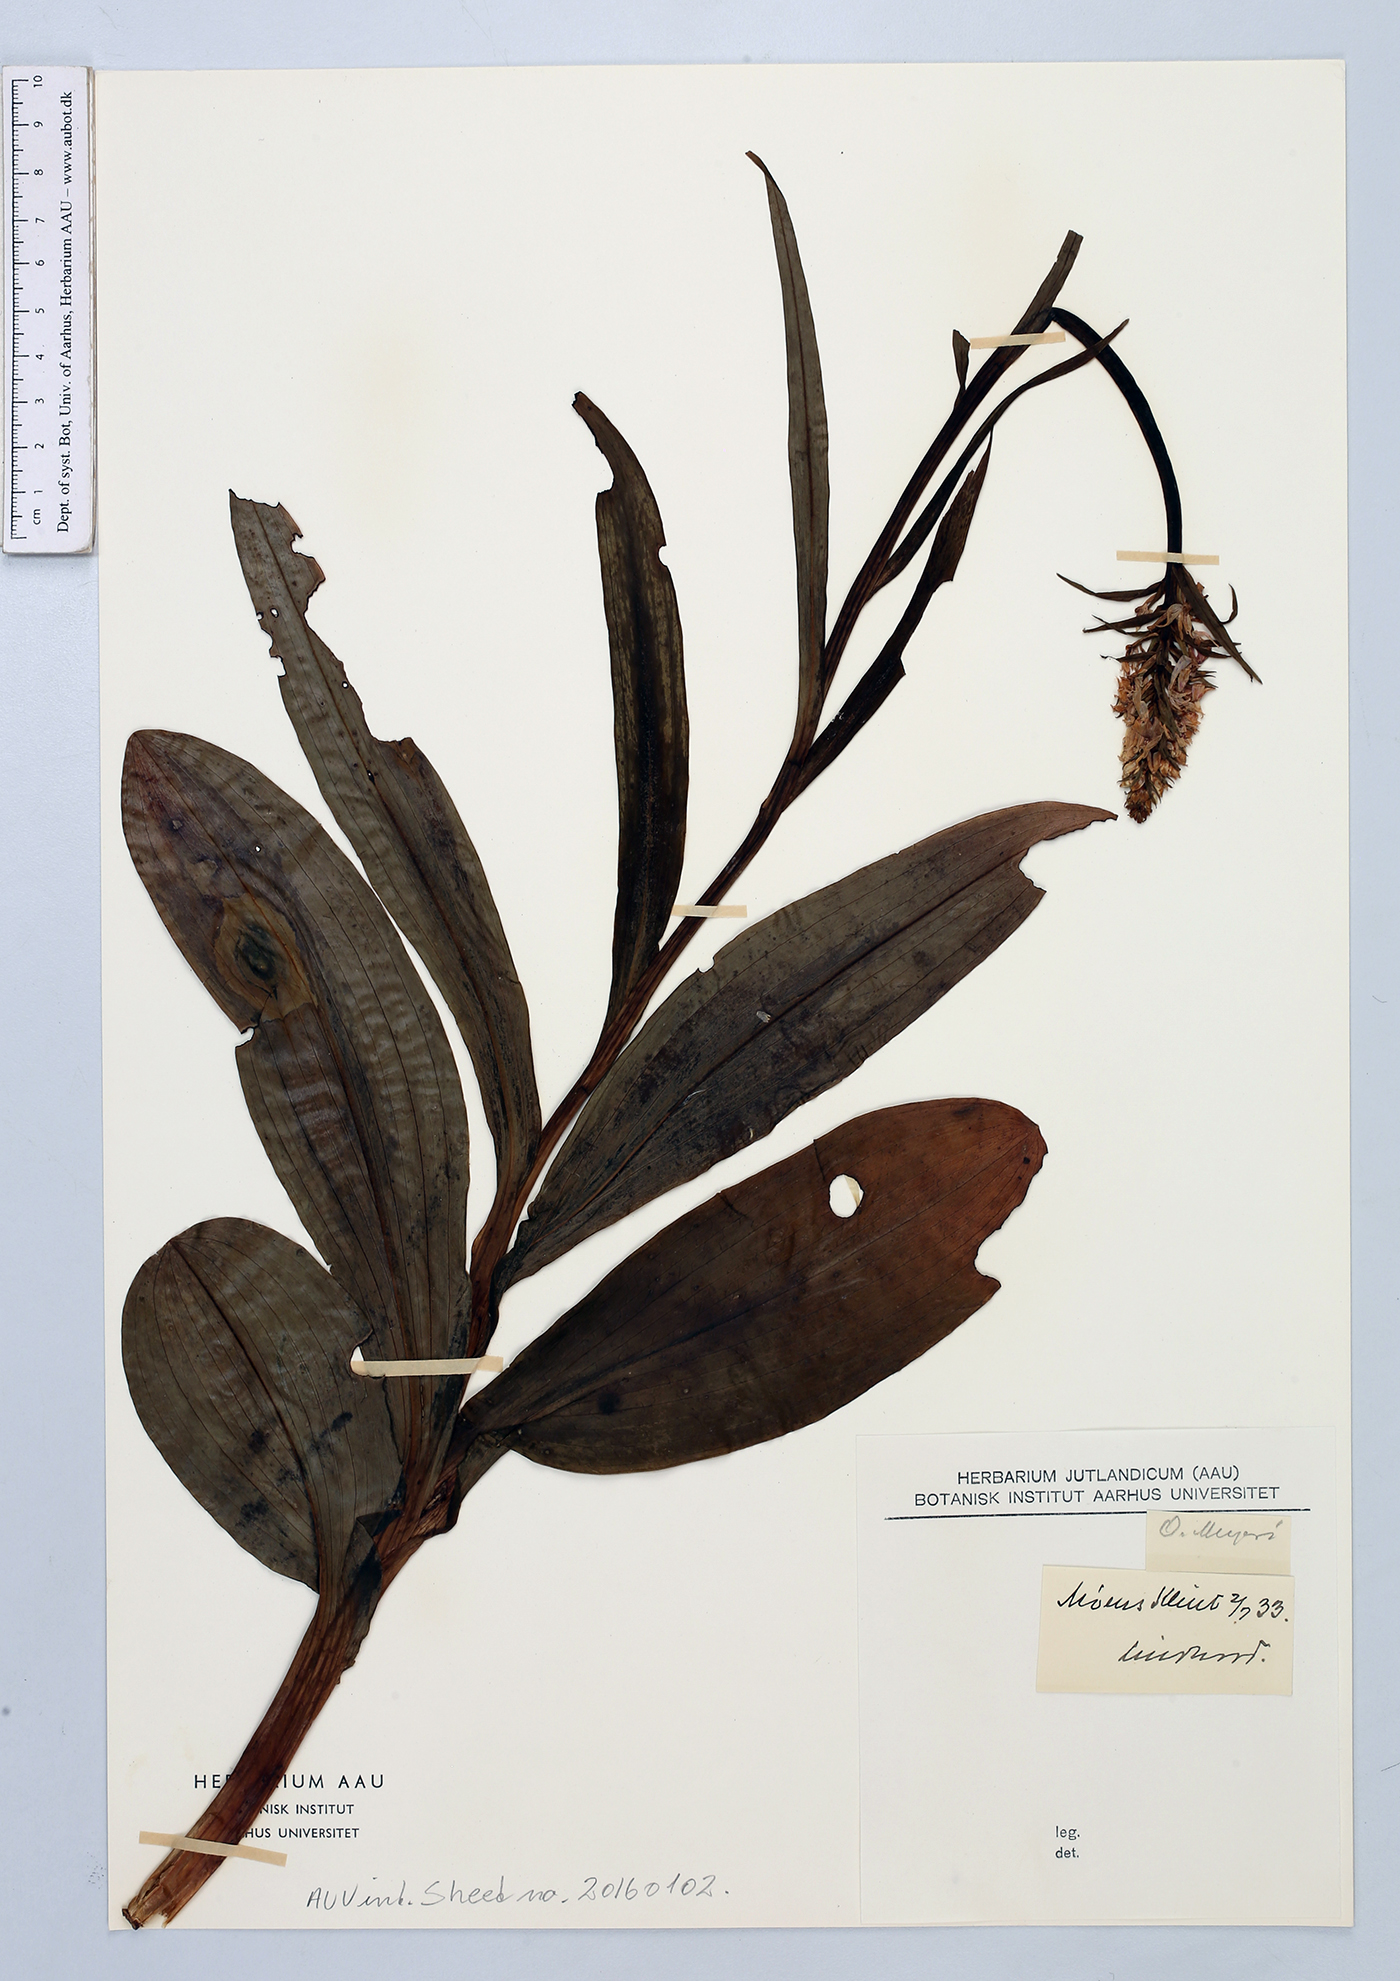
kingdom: Plantae
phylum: Tracheophyta
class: Liliopsida
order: Asparagales
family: Orchidaceae
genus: Dactylorhiza
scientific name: Dactylorhiza maculata
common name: Heath spotted-orchid
